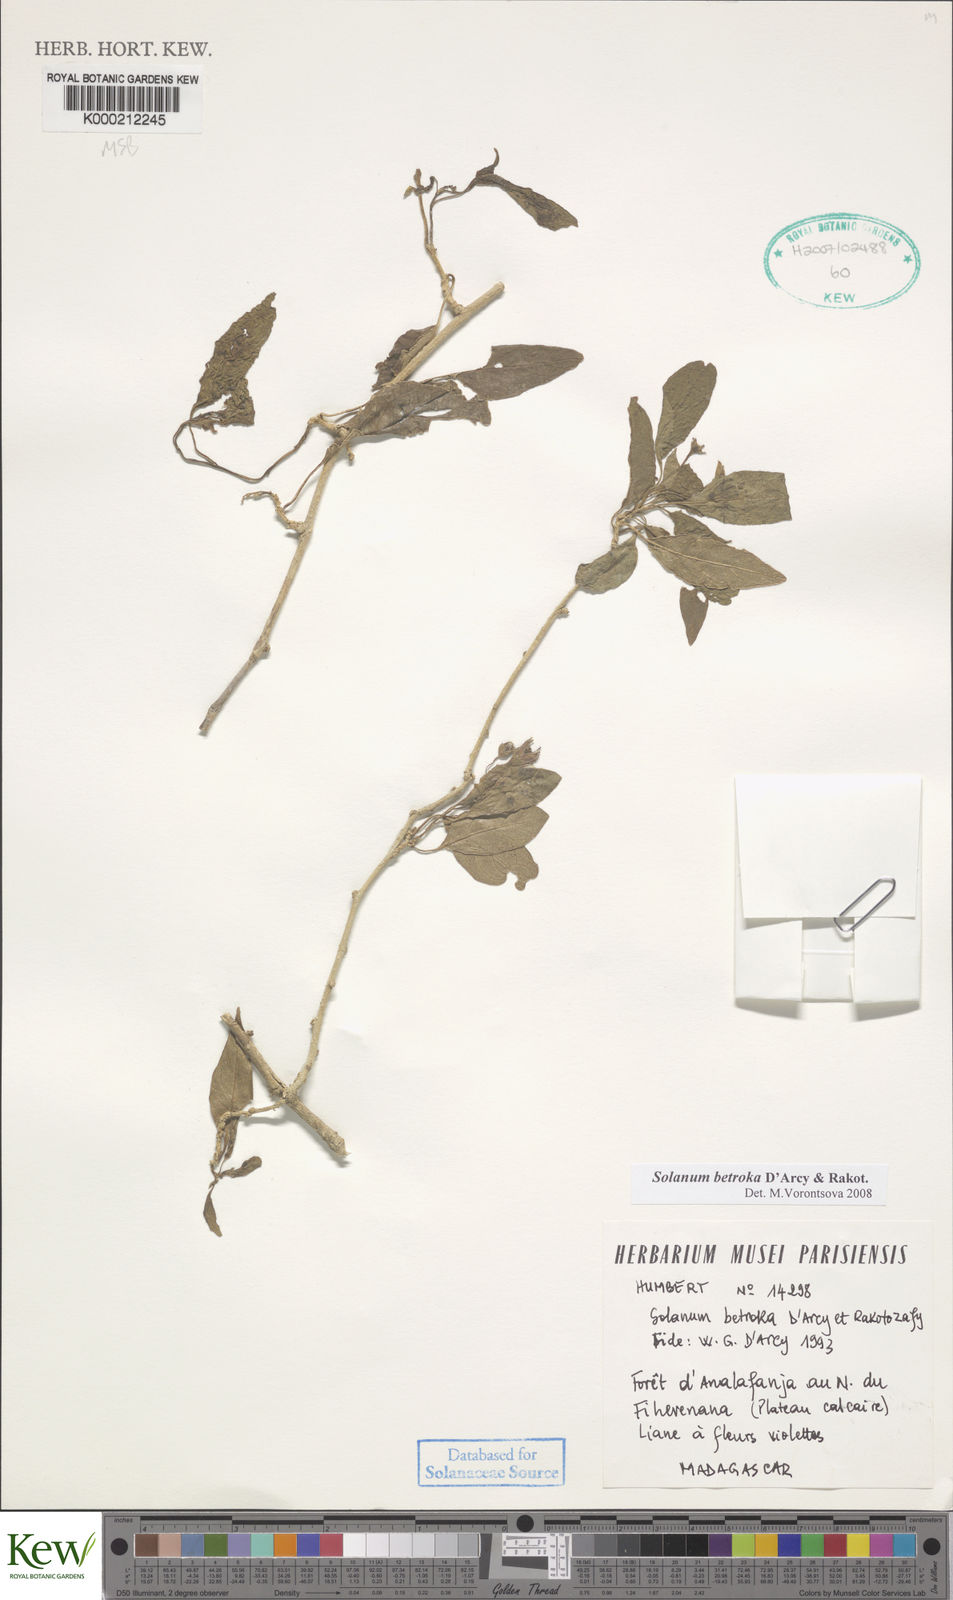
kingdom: Plantae
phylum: Tracheophyta
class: Magnoliopsida
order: Solanales
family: Solanaceae
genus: Solanum
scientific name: Solanum betroka
